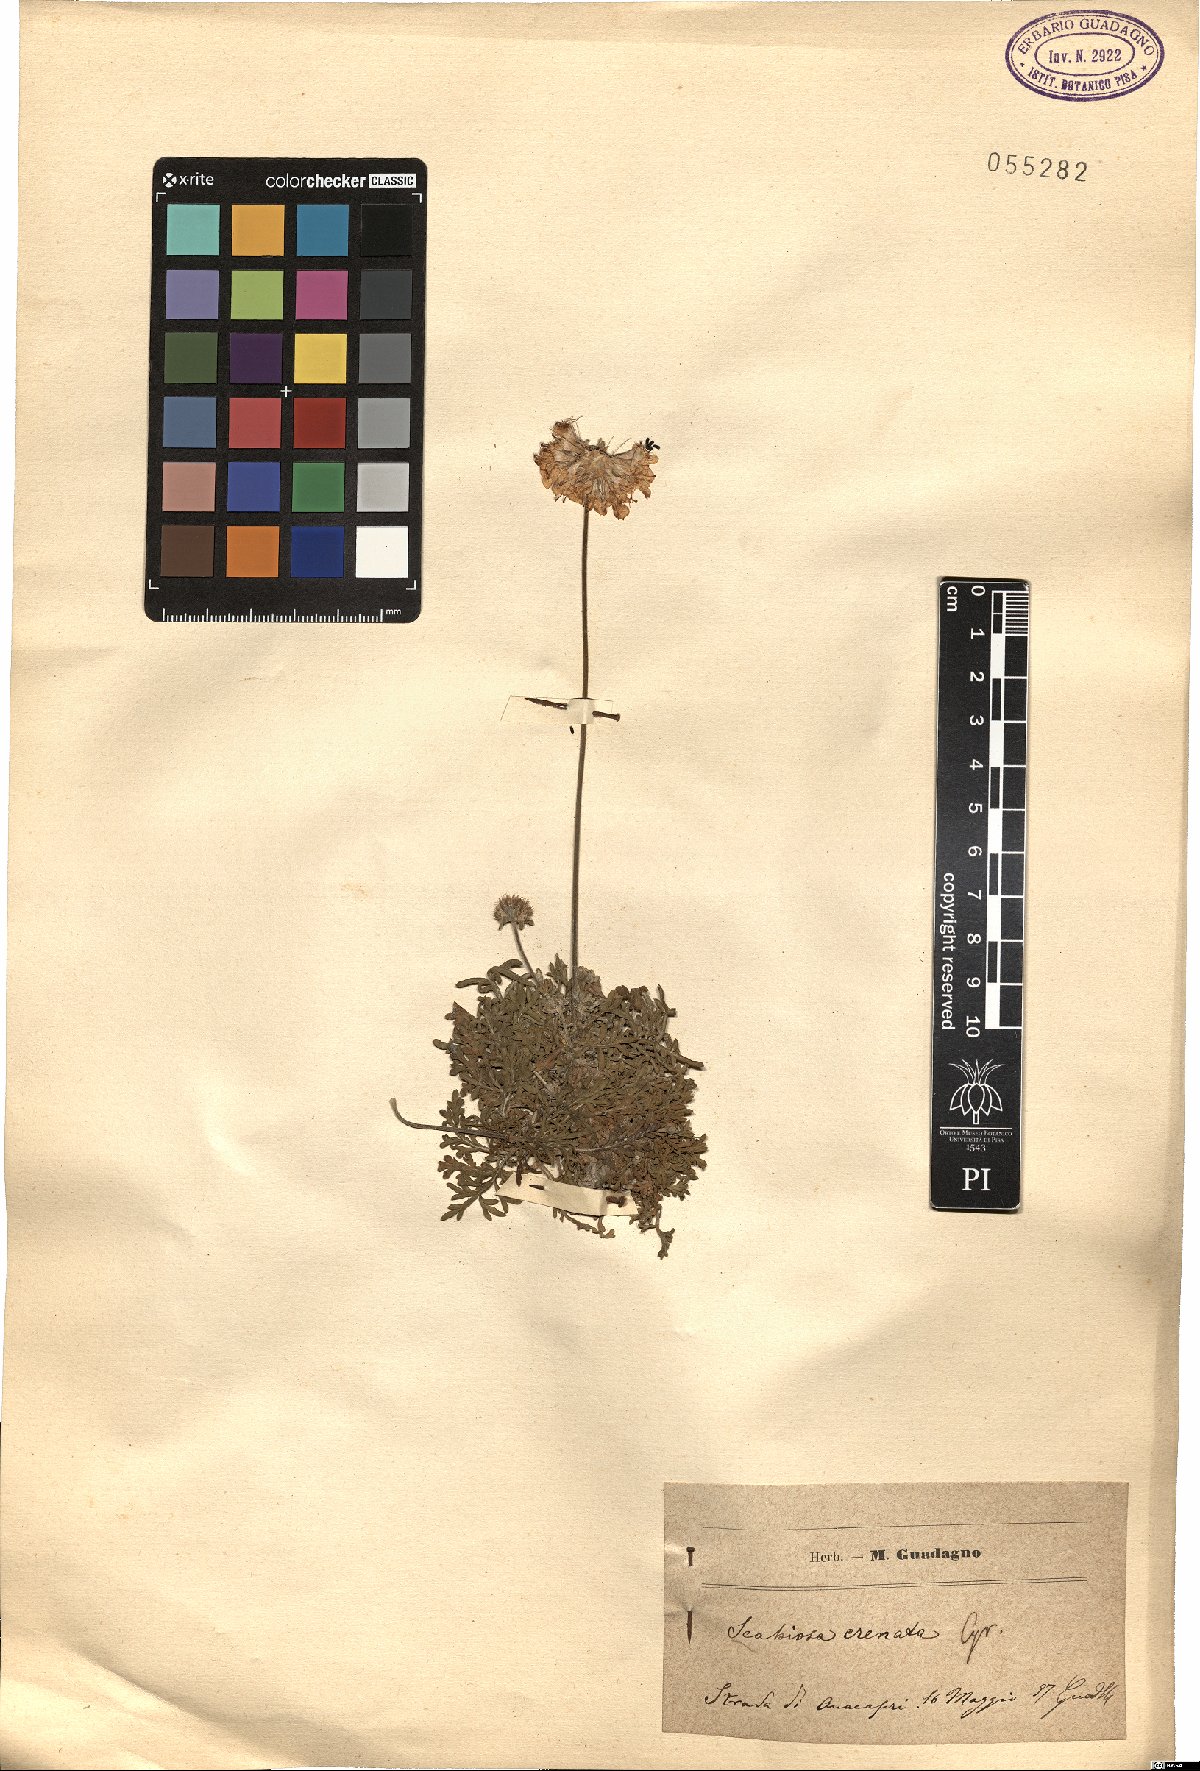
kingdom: Plantae
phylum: Tracheophyta
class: Magnoliopsida
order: Dipsacales
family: Caprifoliaceae
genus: Lomelosia
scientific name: Lomelosia crenata
